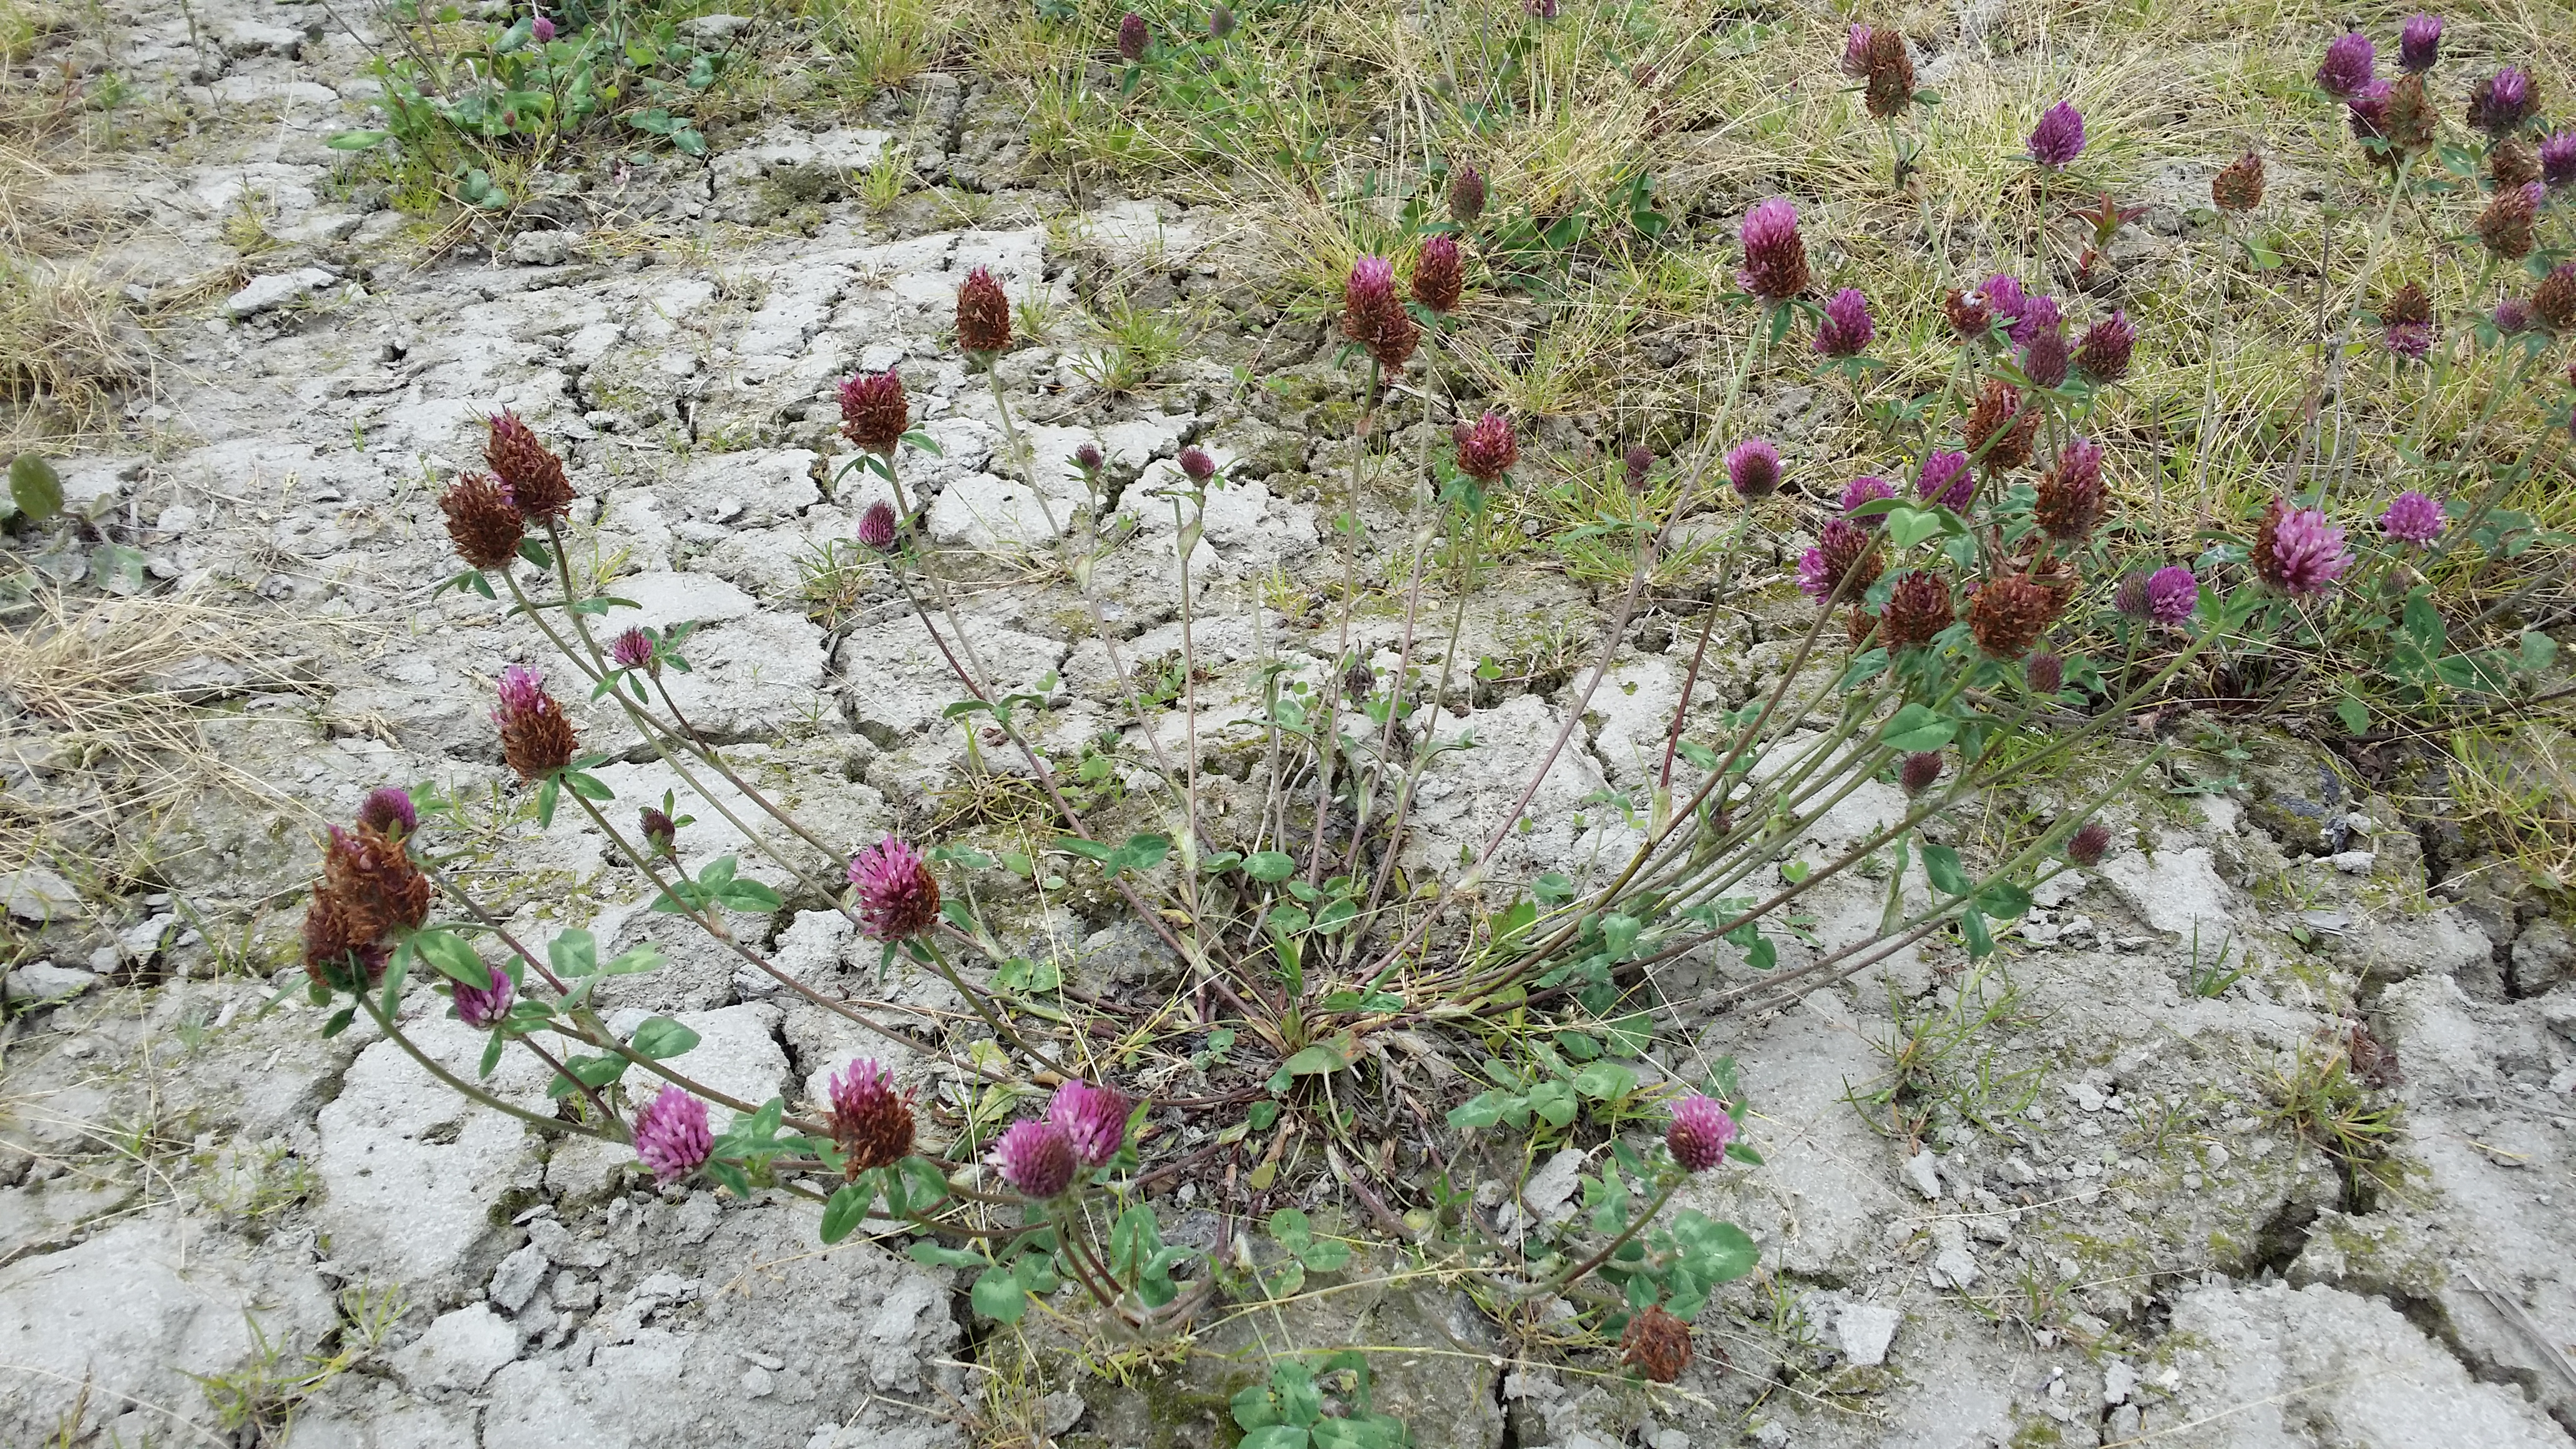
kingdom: Plantae
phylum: Tracheophyta
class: Magnoliopsida
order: Fabales
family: Fabaceae
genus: Trifolium
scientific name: Trifolium pratense
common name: Red clover
